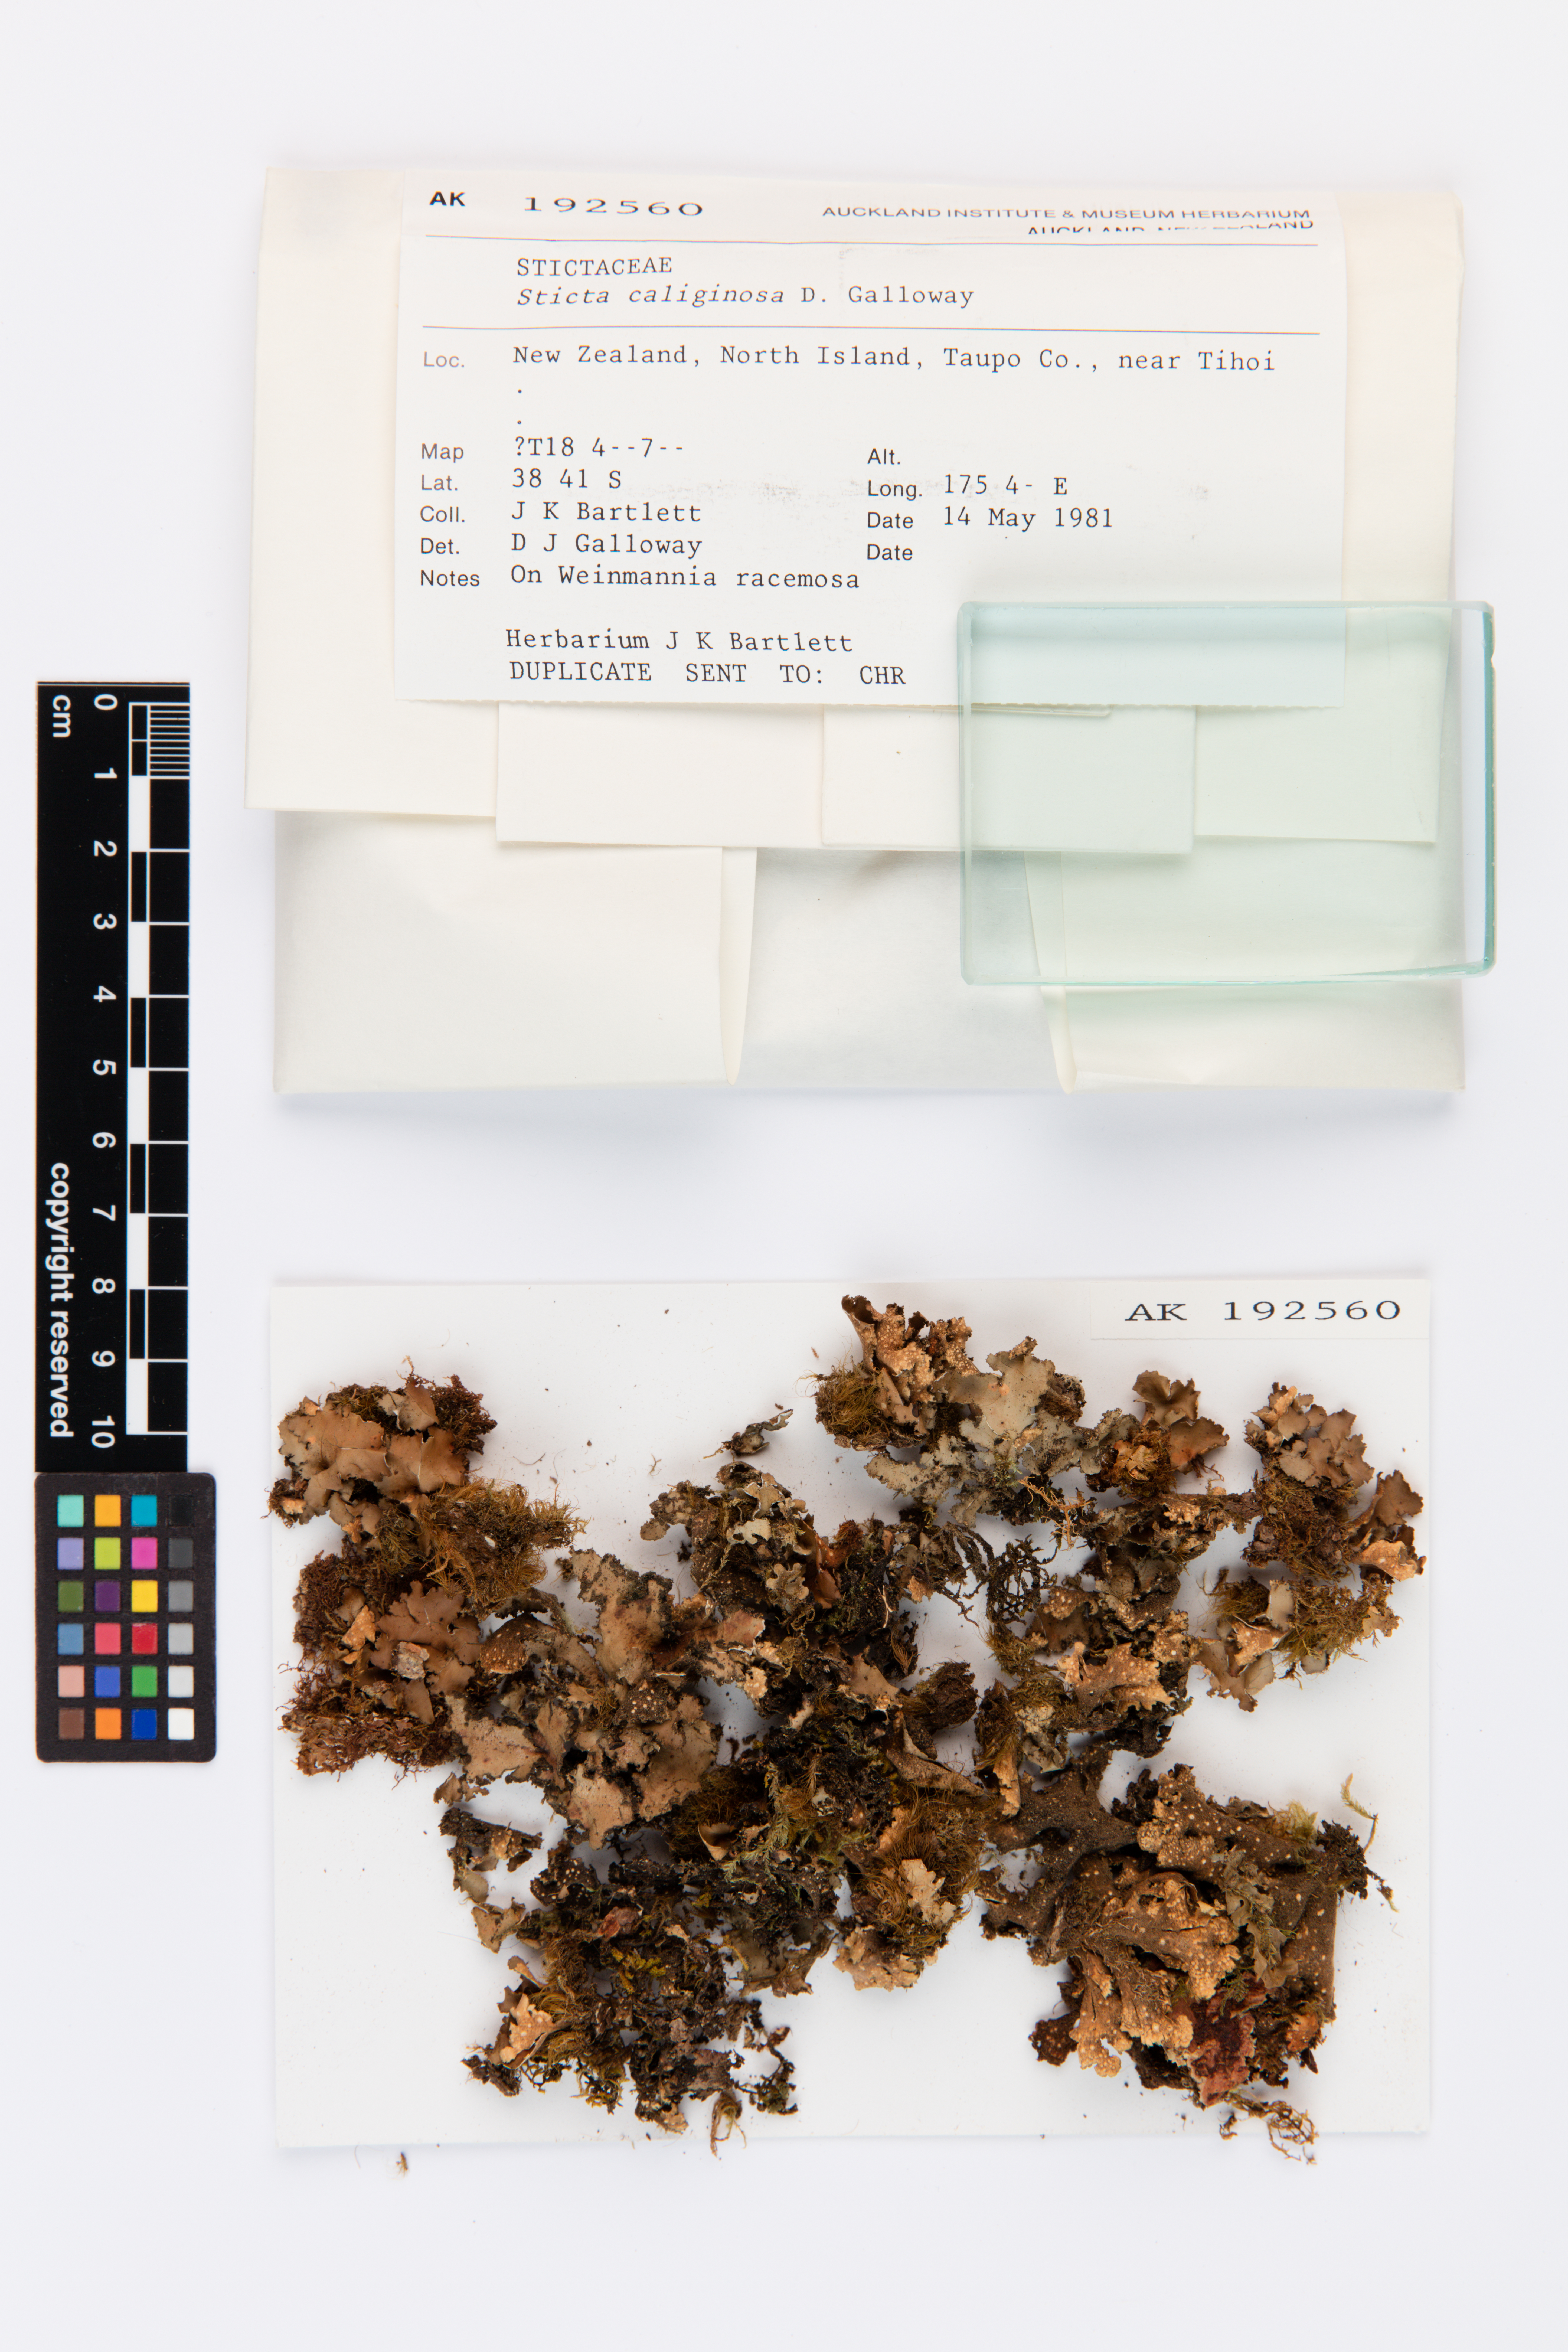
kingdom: Fungi
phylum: Ascomycota
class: Lecanoromycetes
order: Peltigerales
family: Lobariaceae
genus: Sticta
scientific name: Sticta caliginosa
